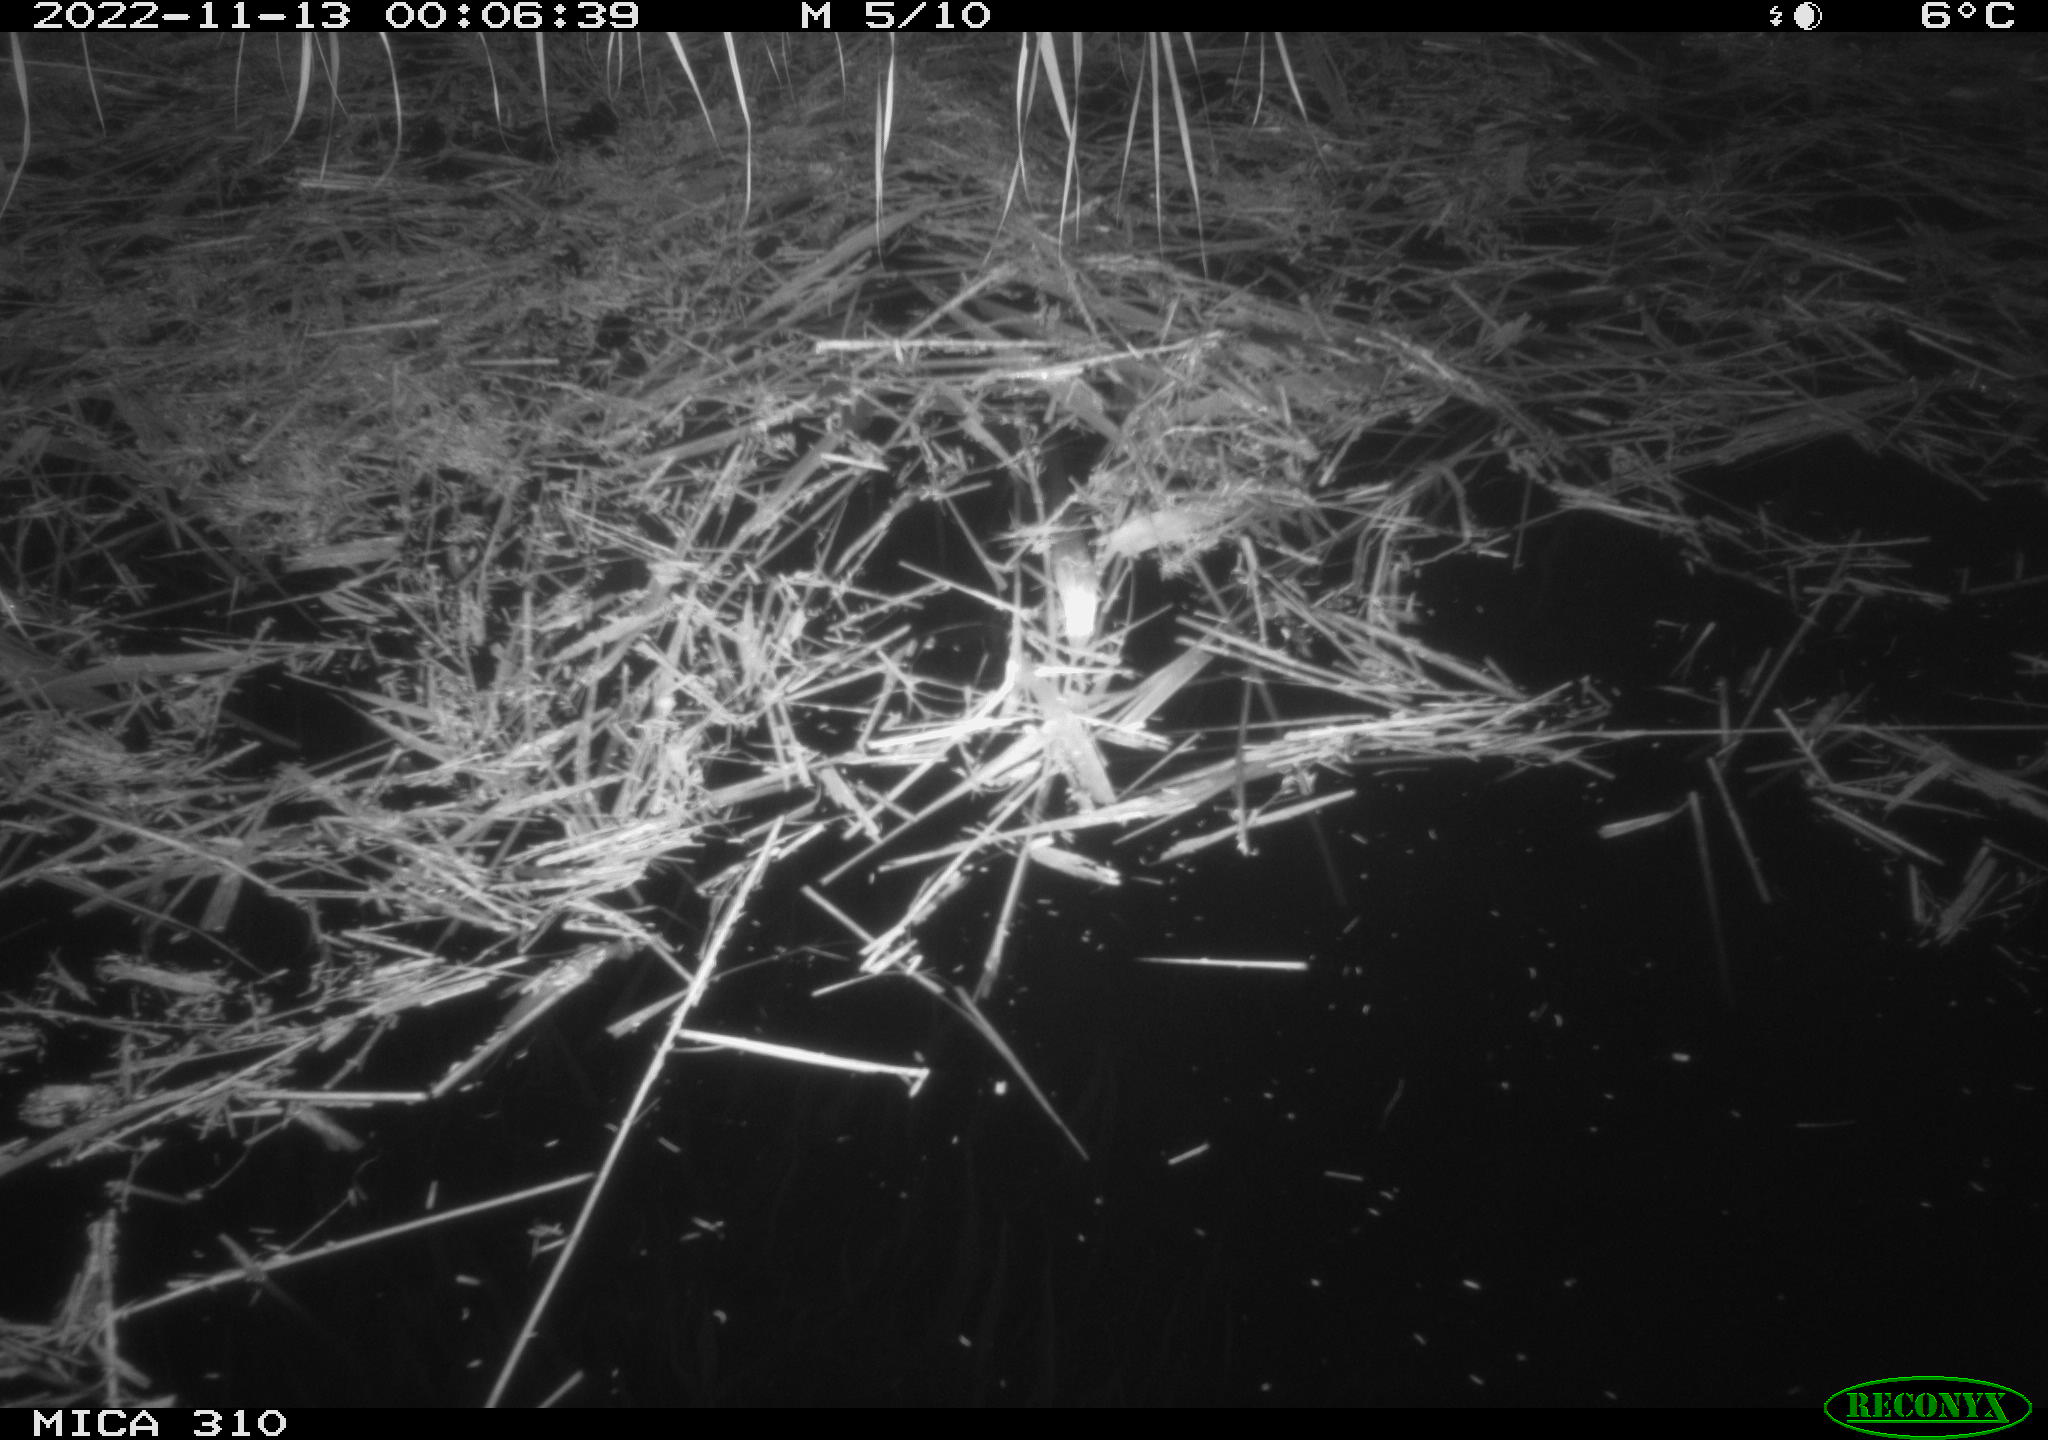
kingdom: Animalia
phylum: Chordata
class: Mammalia
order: Rodentia
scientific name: Rodentia
